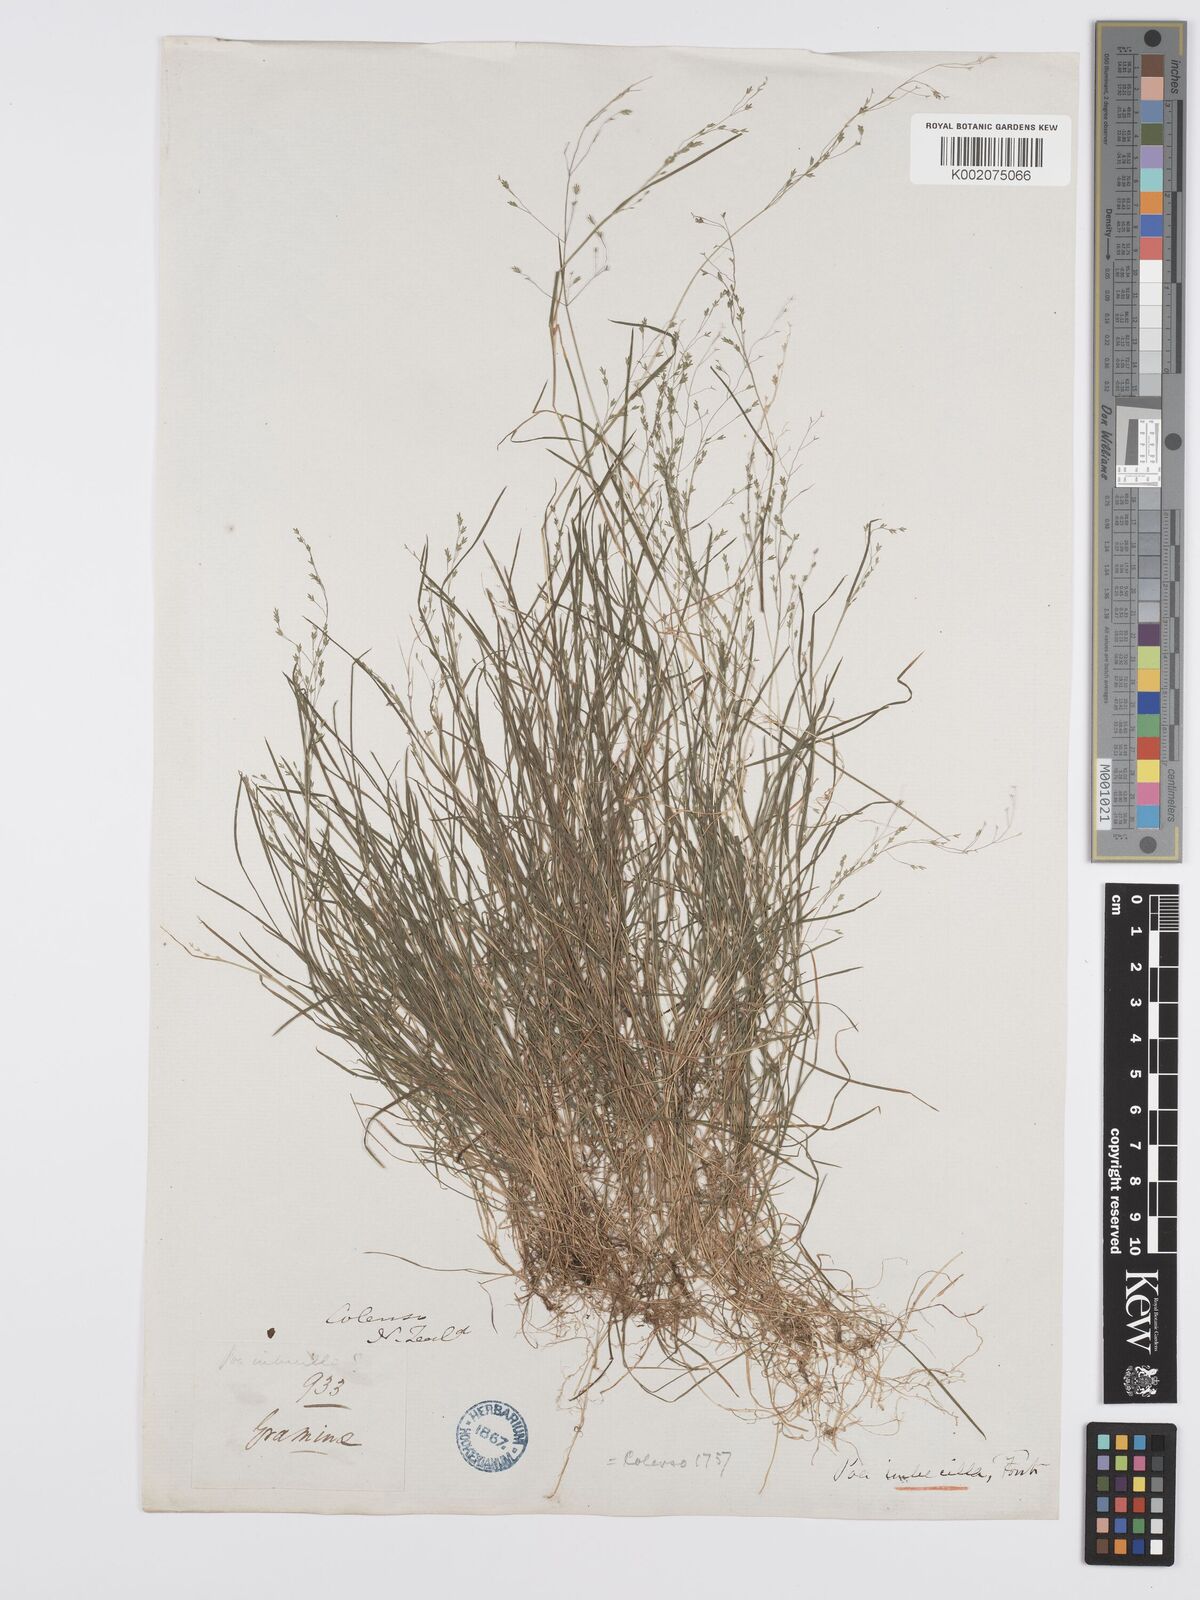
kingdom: Plantae
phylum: Tracheophyta
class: Liliopsida
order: Poales
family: Poaceae
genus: Poa
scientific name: Poa breviglumis
